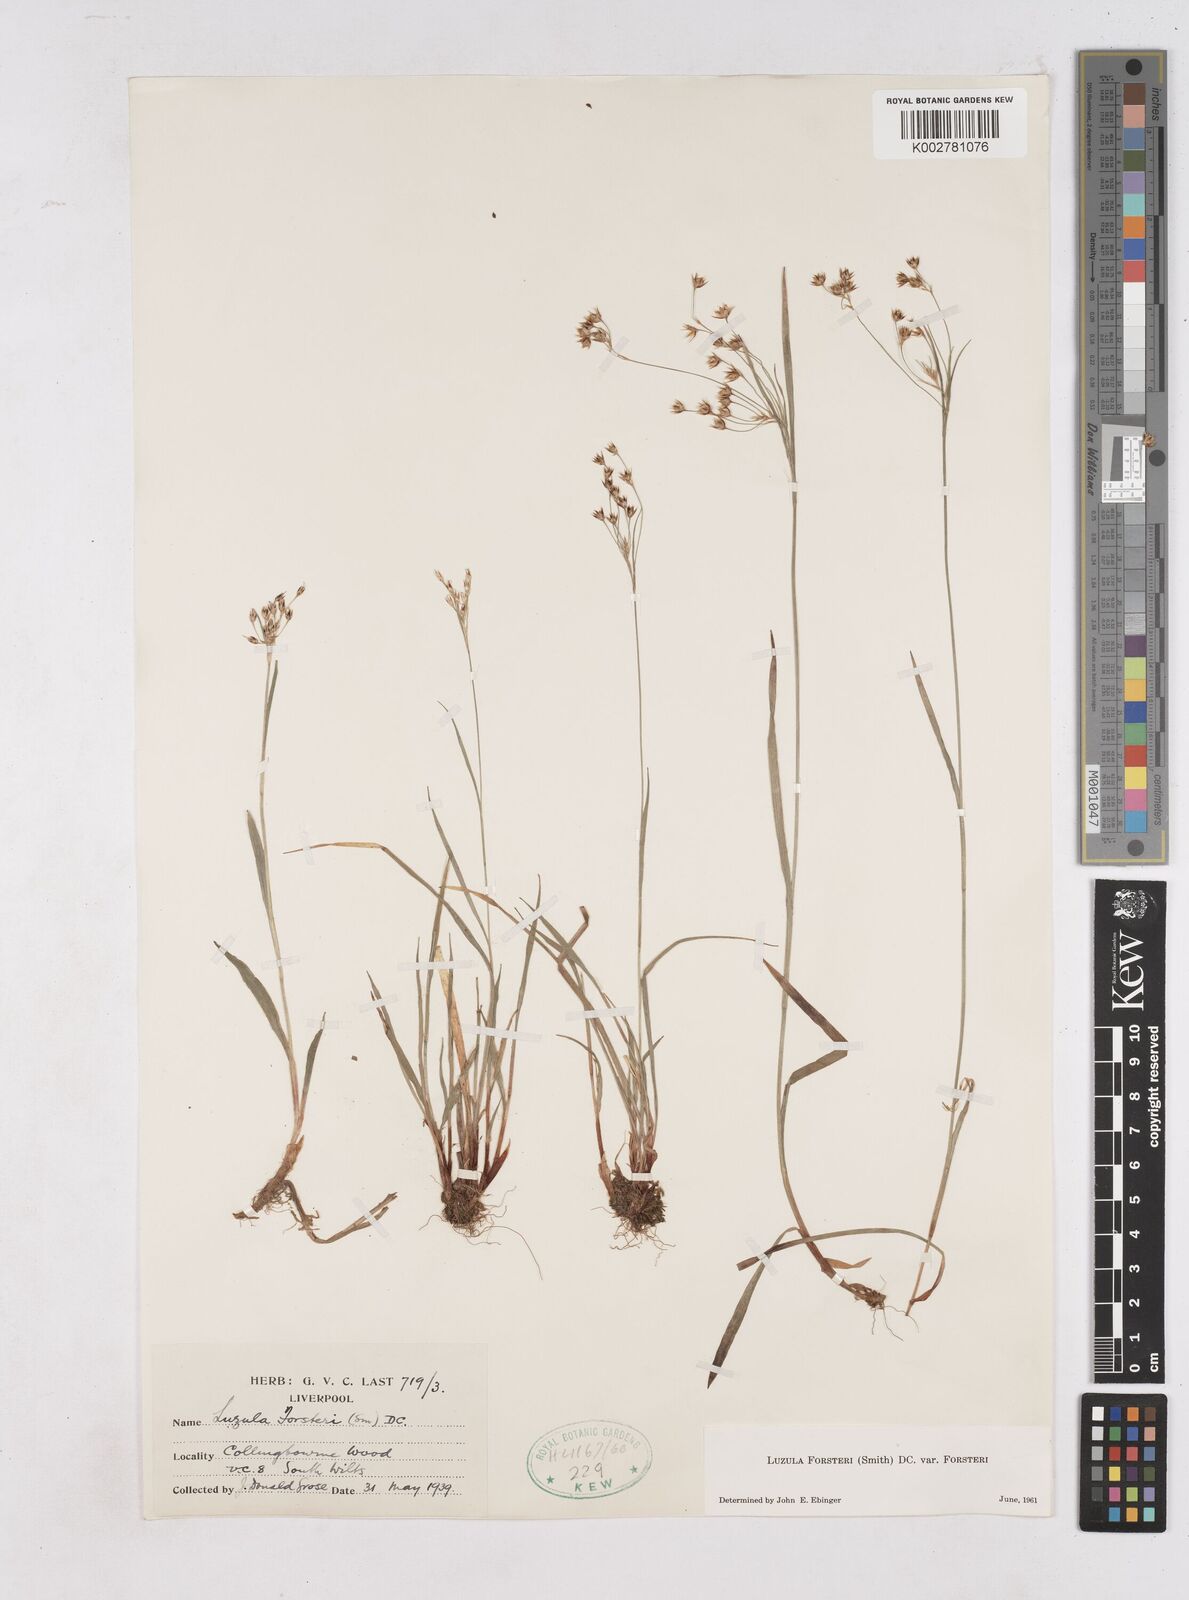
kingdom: Plantae
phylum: Tracheophyta
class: Liliopsida
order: Poales
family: Juncaceae
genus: Luzula
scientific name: Luzula forsteri
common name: Southern wood-rush
